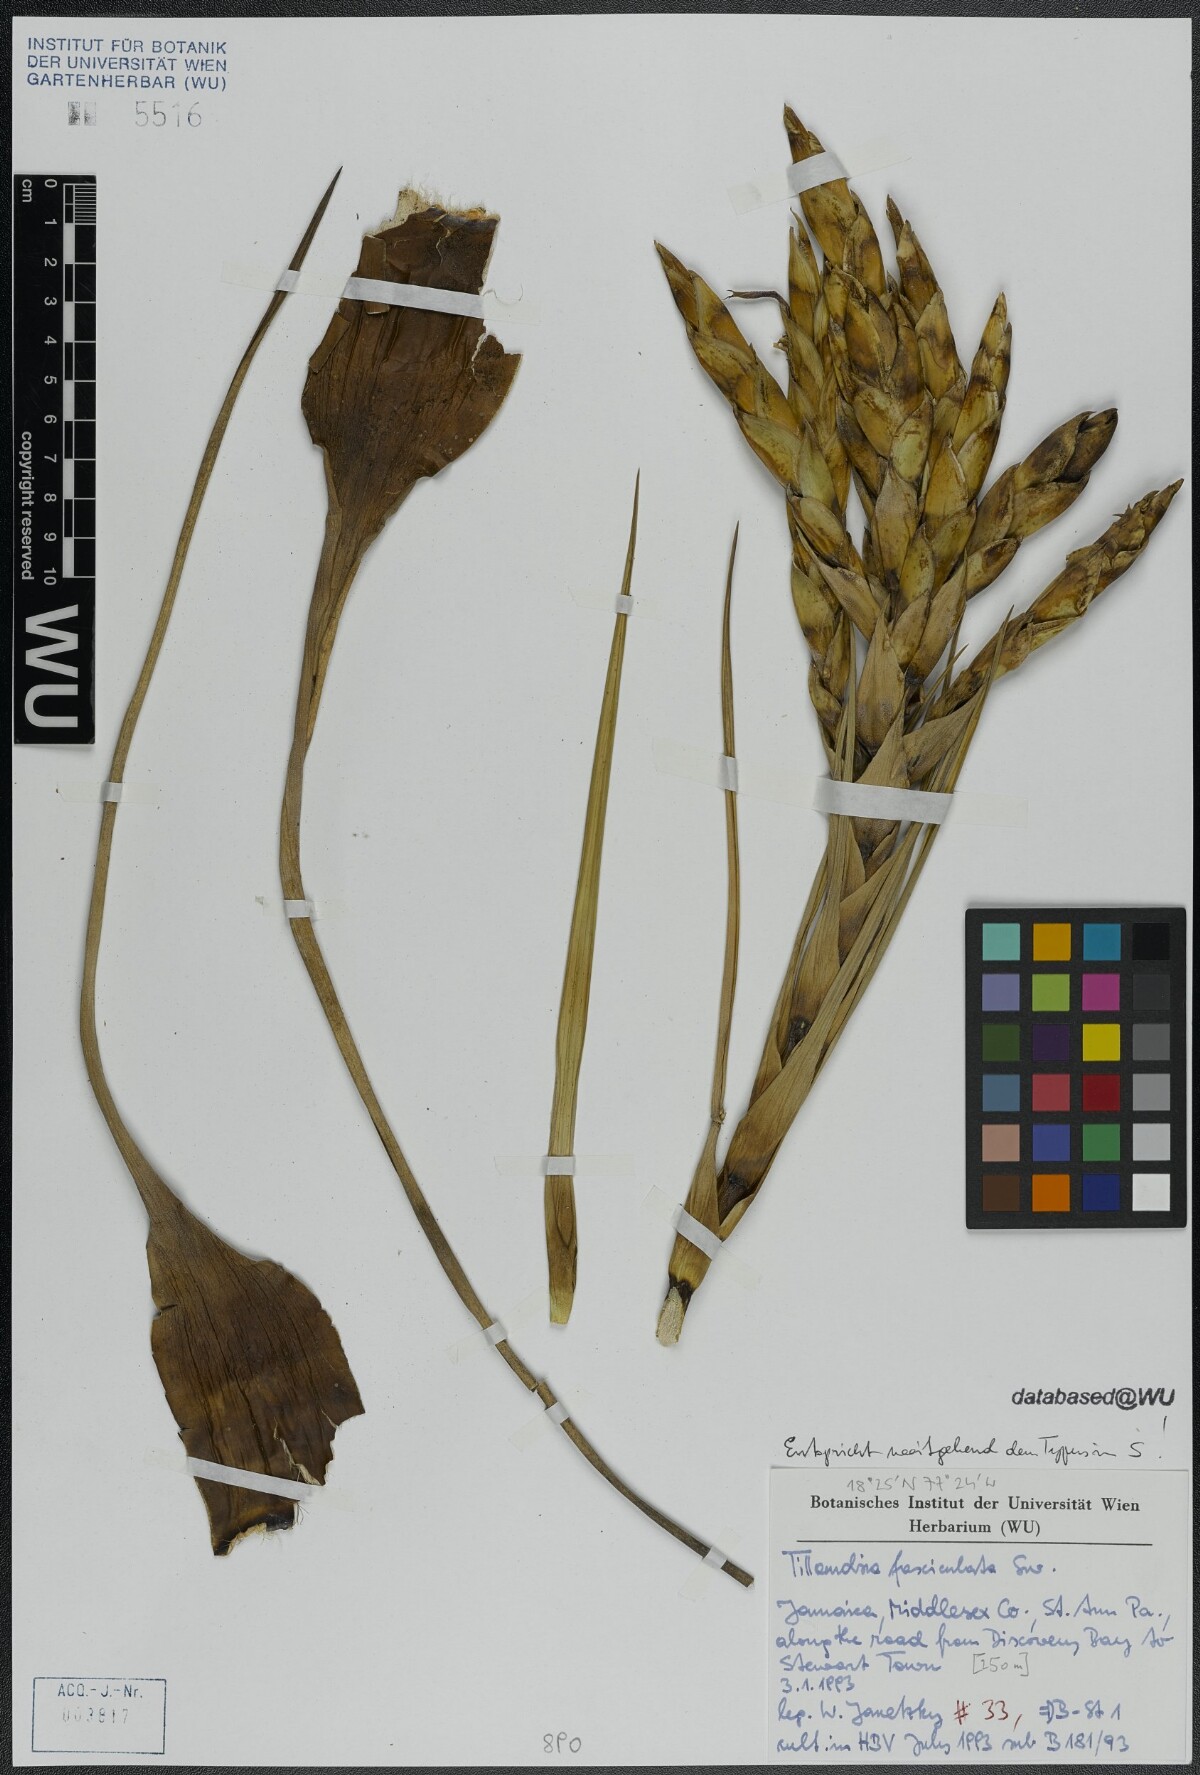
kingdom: Plantae
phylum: Tracheophyta
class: Liliopsida
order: Poales
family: Bromeliaceae
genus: Tillandsia
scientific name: Tillandsia fasciculata
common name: Giant airplant
